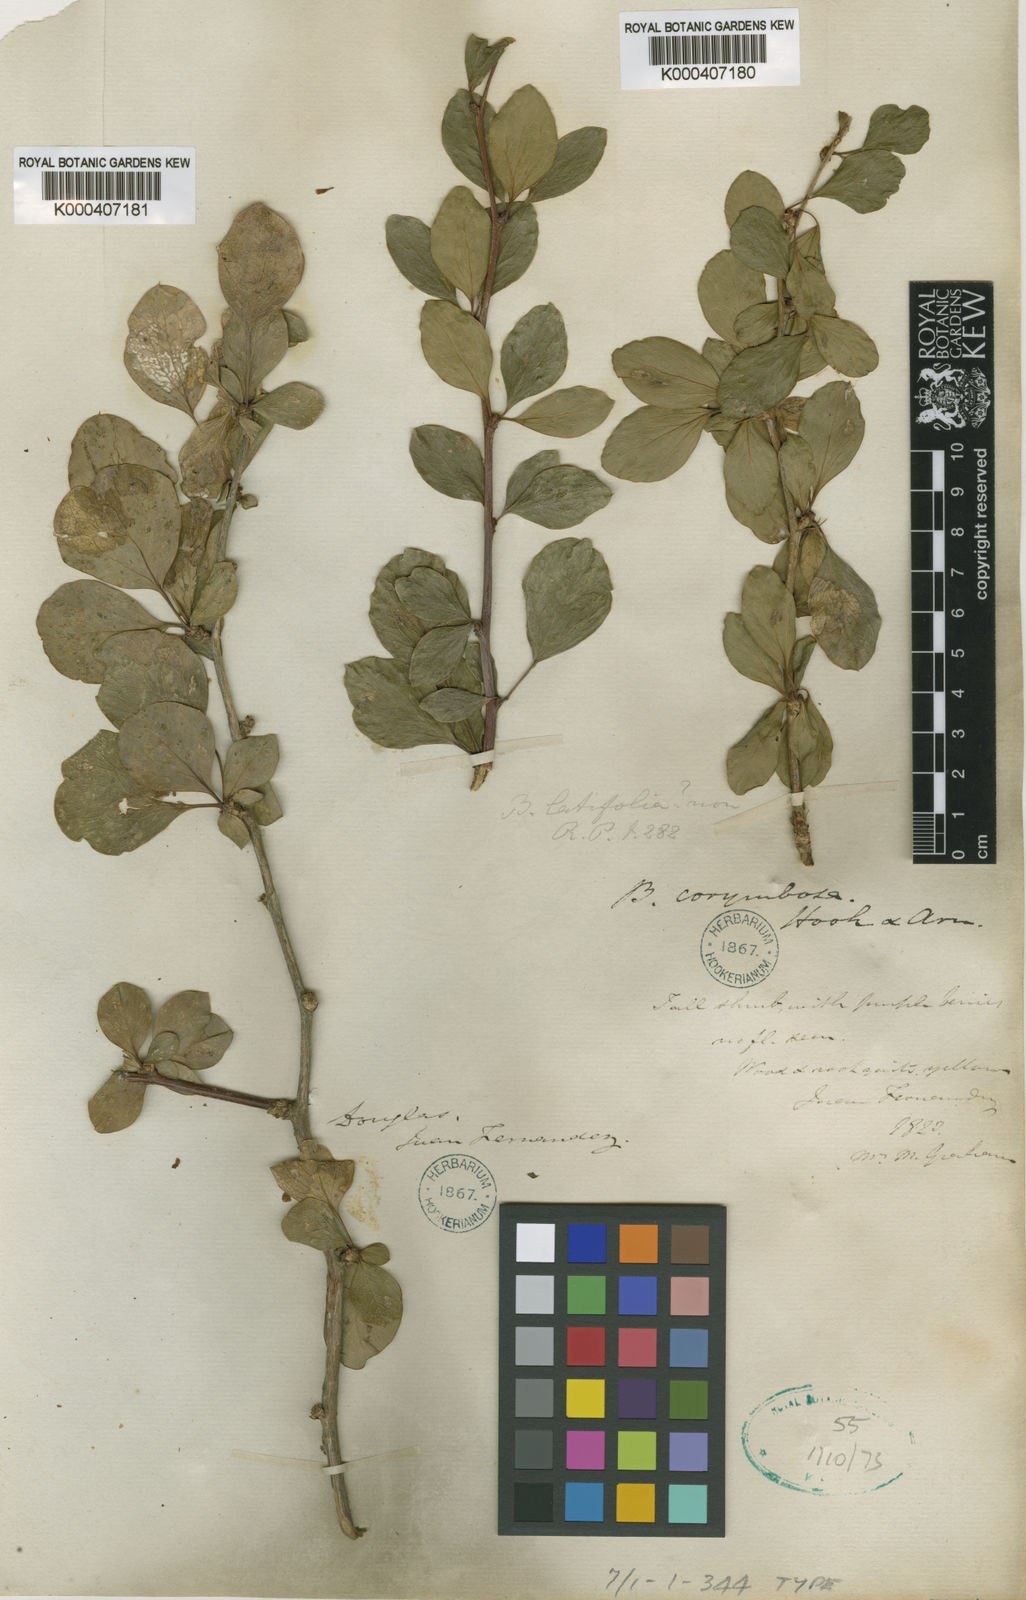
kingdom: Plantae
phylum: Tracheophyta
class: Magnoliopsida
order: Ranunculales
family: Berberidaceae
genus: Berberis
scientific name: Berberis corymbosa
